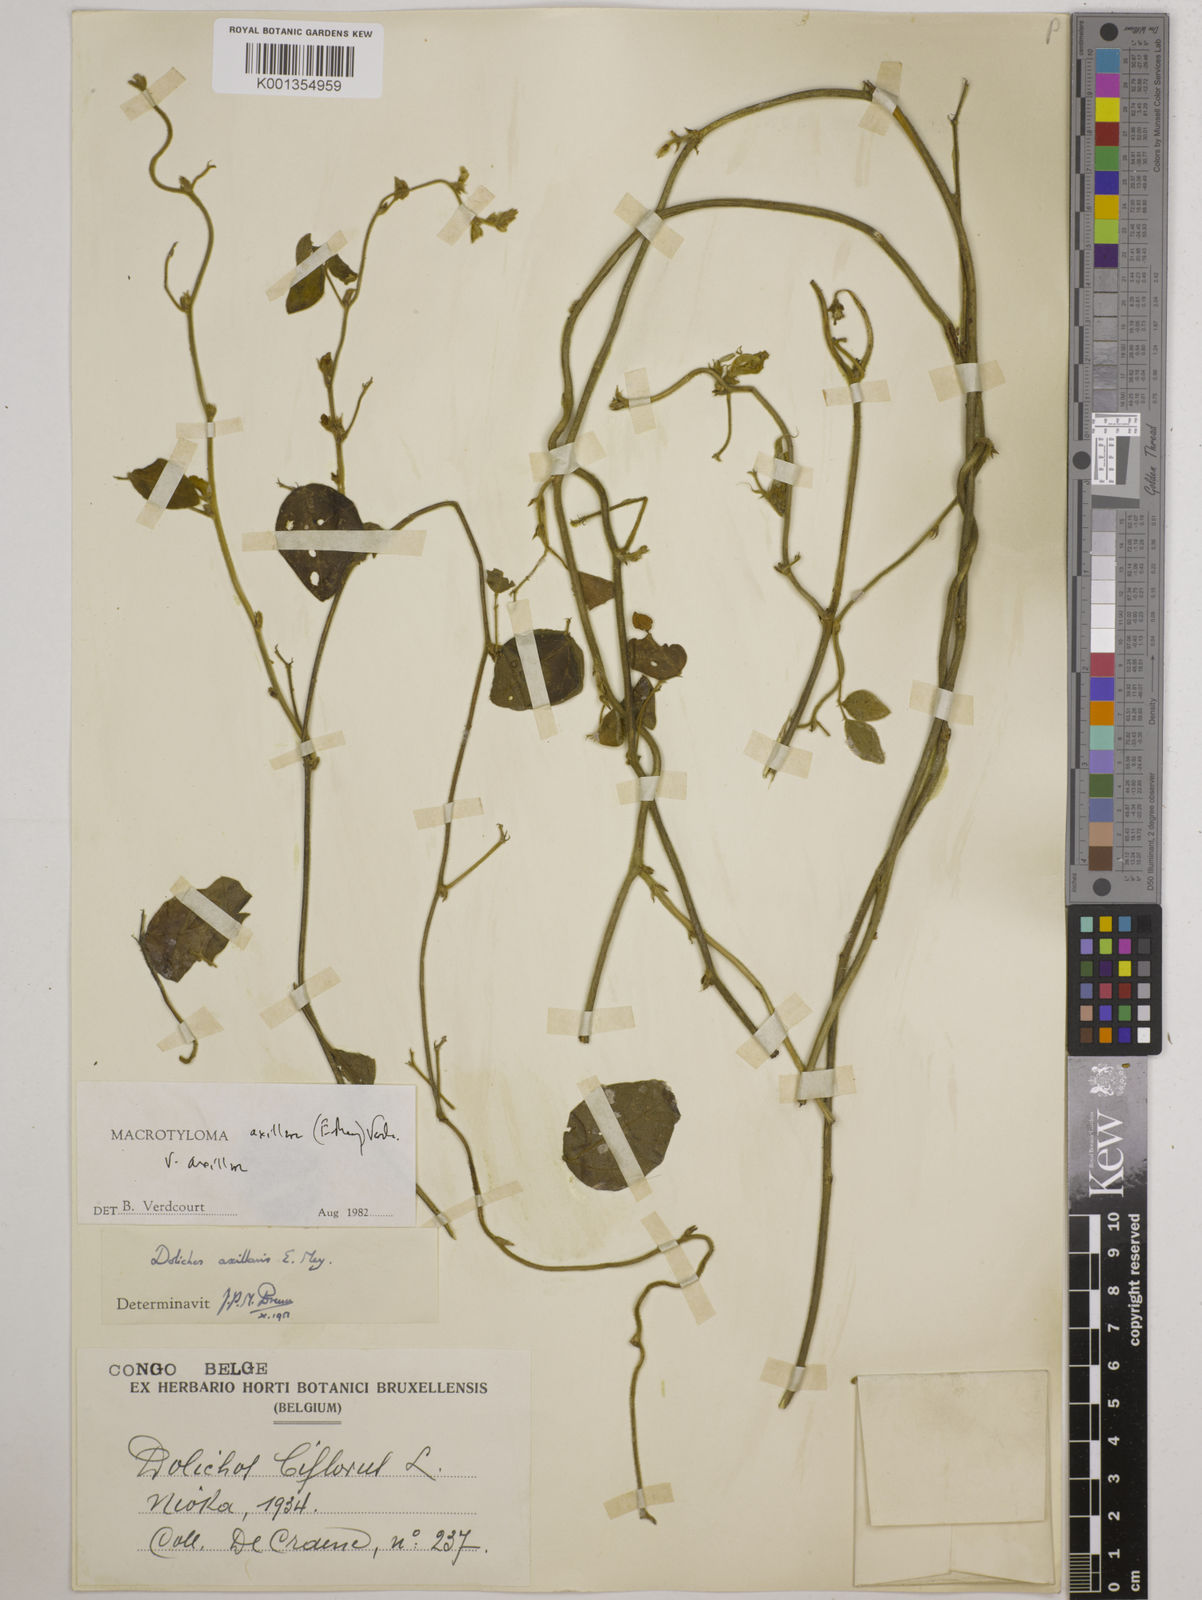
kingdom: Plantae
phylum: Tracheophyta
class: Magnoliopsida
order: Fabales
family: Fabaceae
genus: Macrotyloma
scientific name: Macrotyloma axillare
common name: Perennial horsegram
